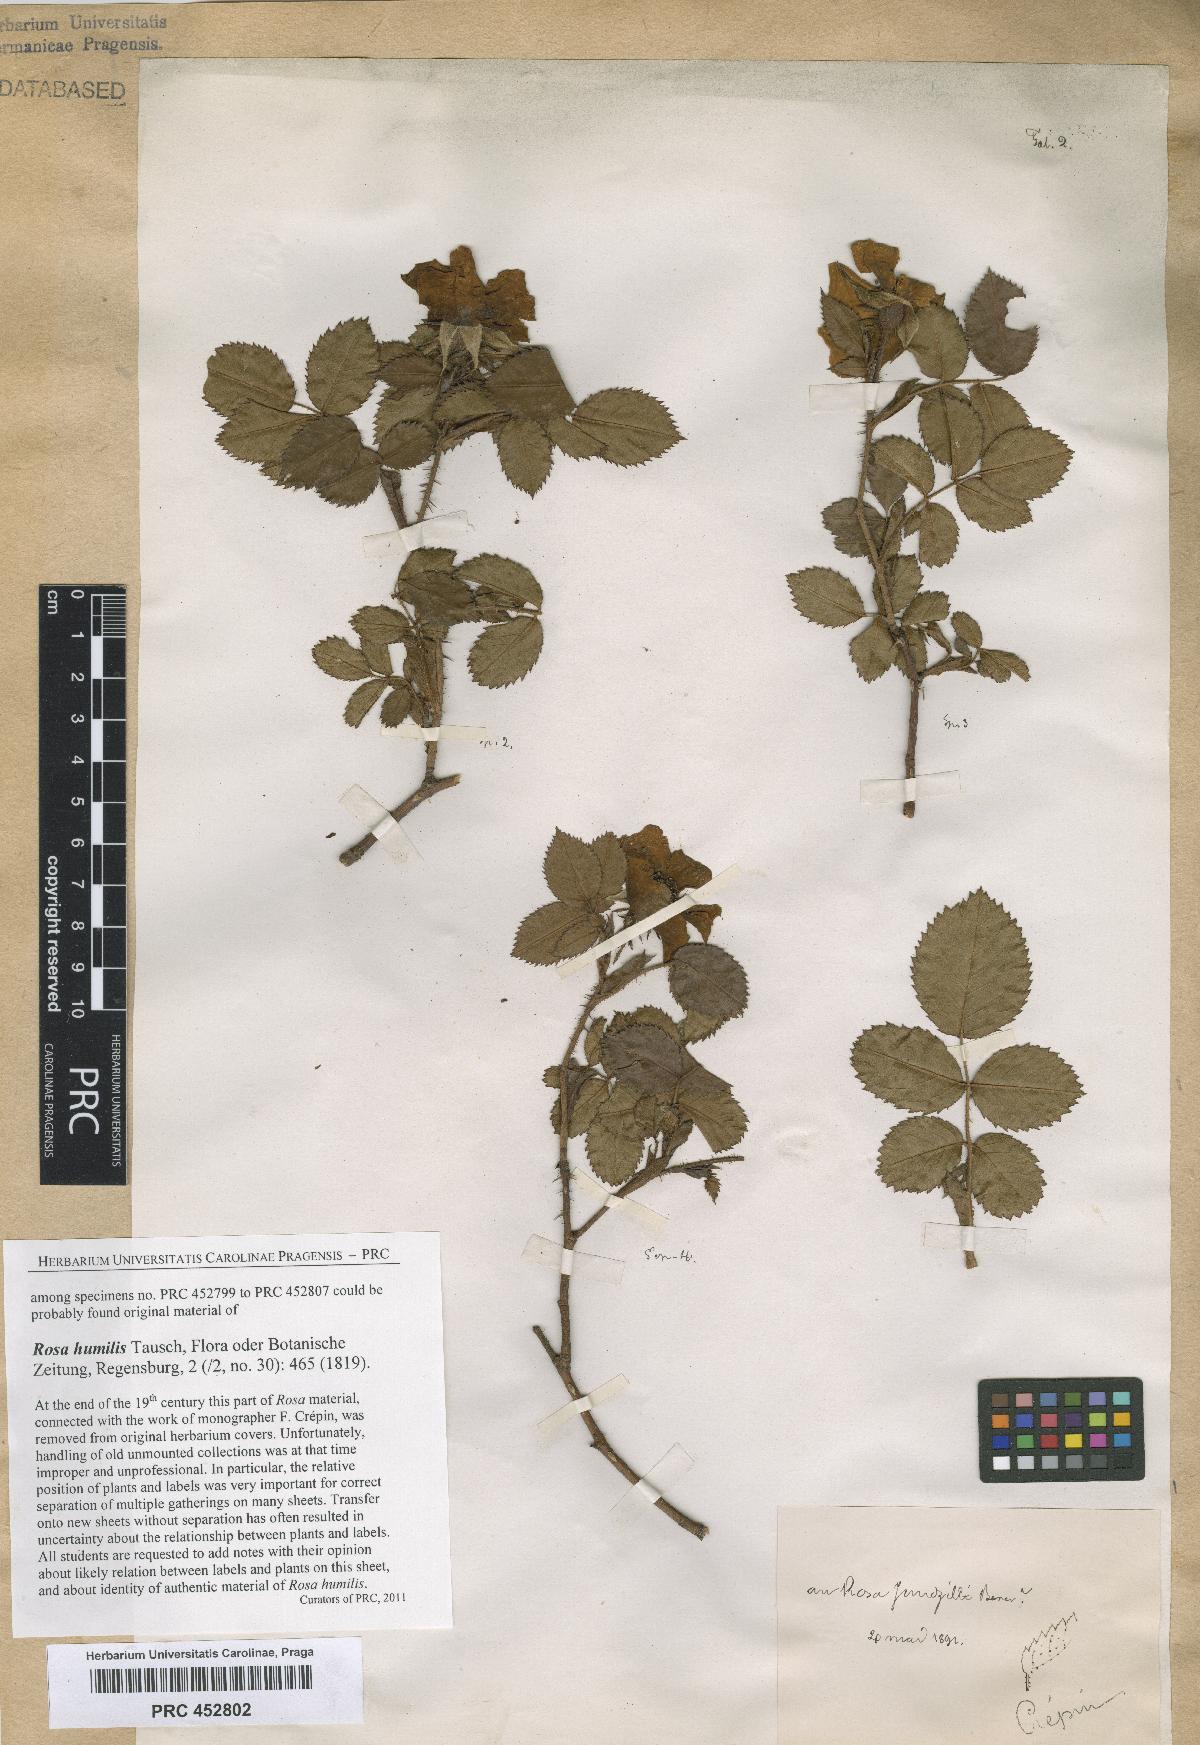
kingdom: Plantae
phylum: Tracheophyta
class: Magnoliopsida
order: Rosales
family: Rosaceae
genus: Rosa
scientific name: Rosa marginata
